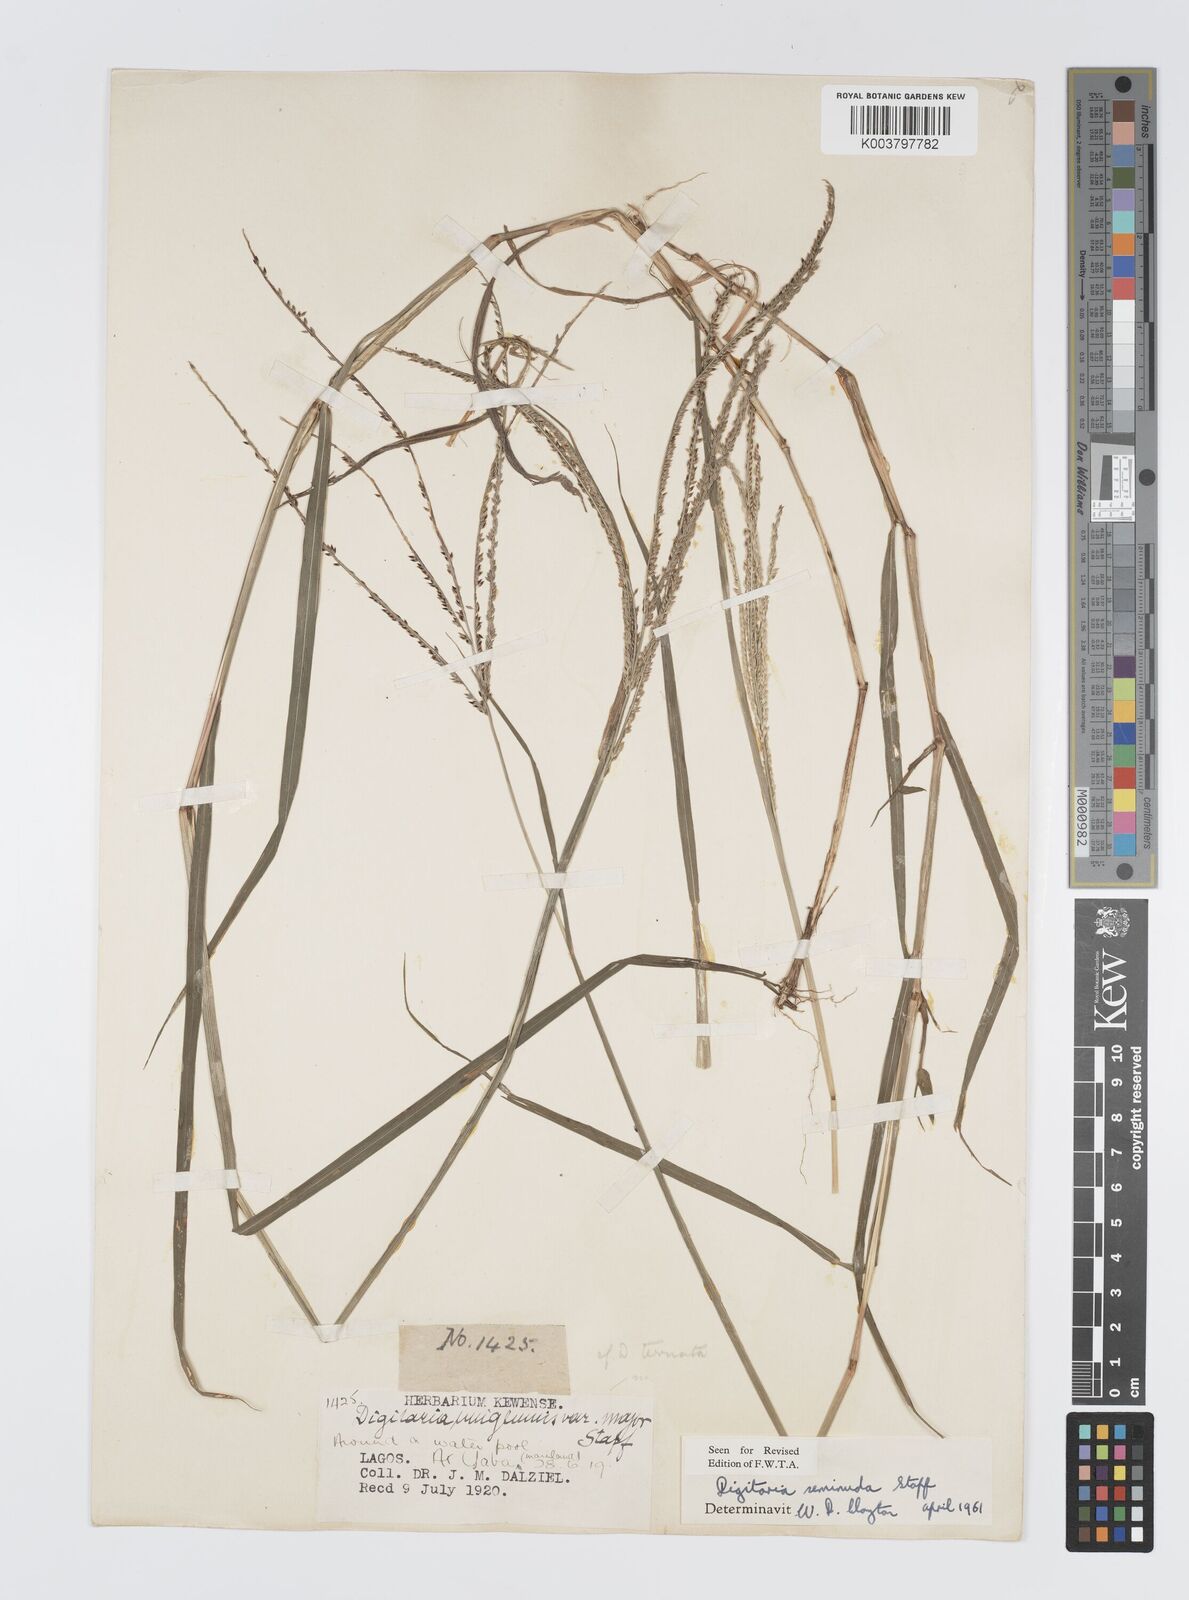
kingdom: Plantae
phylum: Tracheophyta
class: Liliopsida
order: Poales
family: Poaceae
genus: Digitaria
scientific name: Digitaria atrofusca
